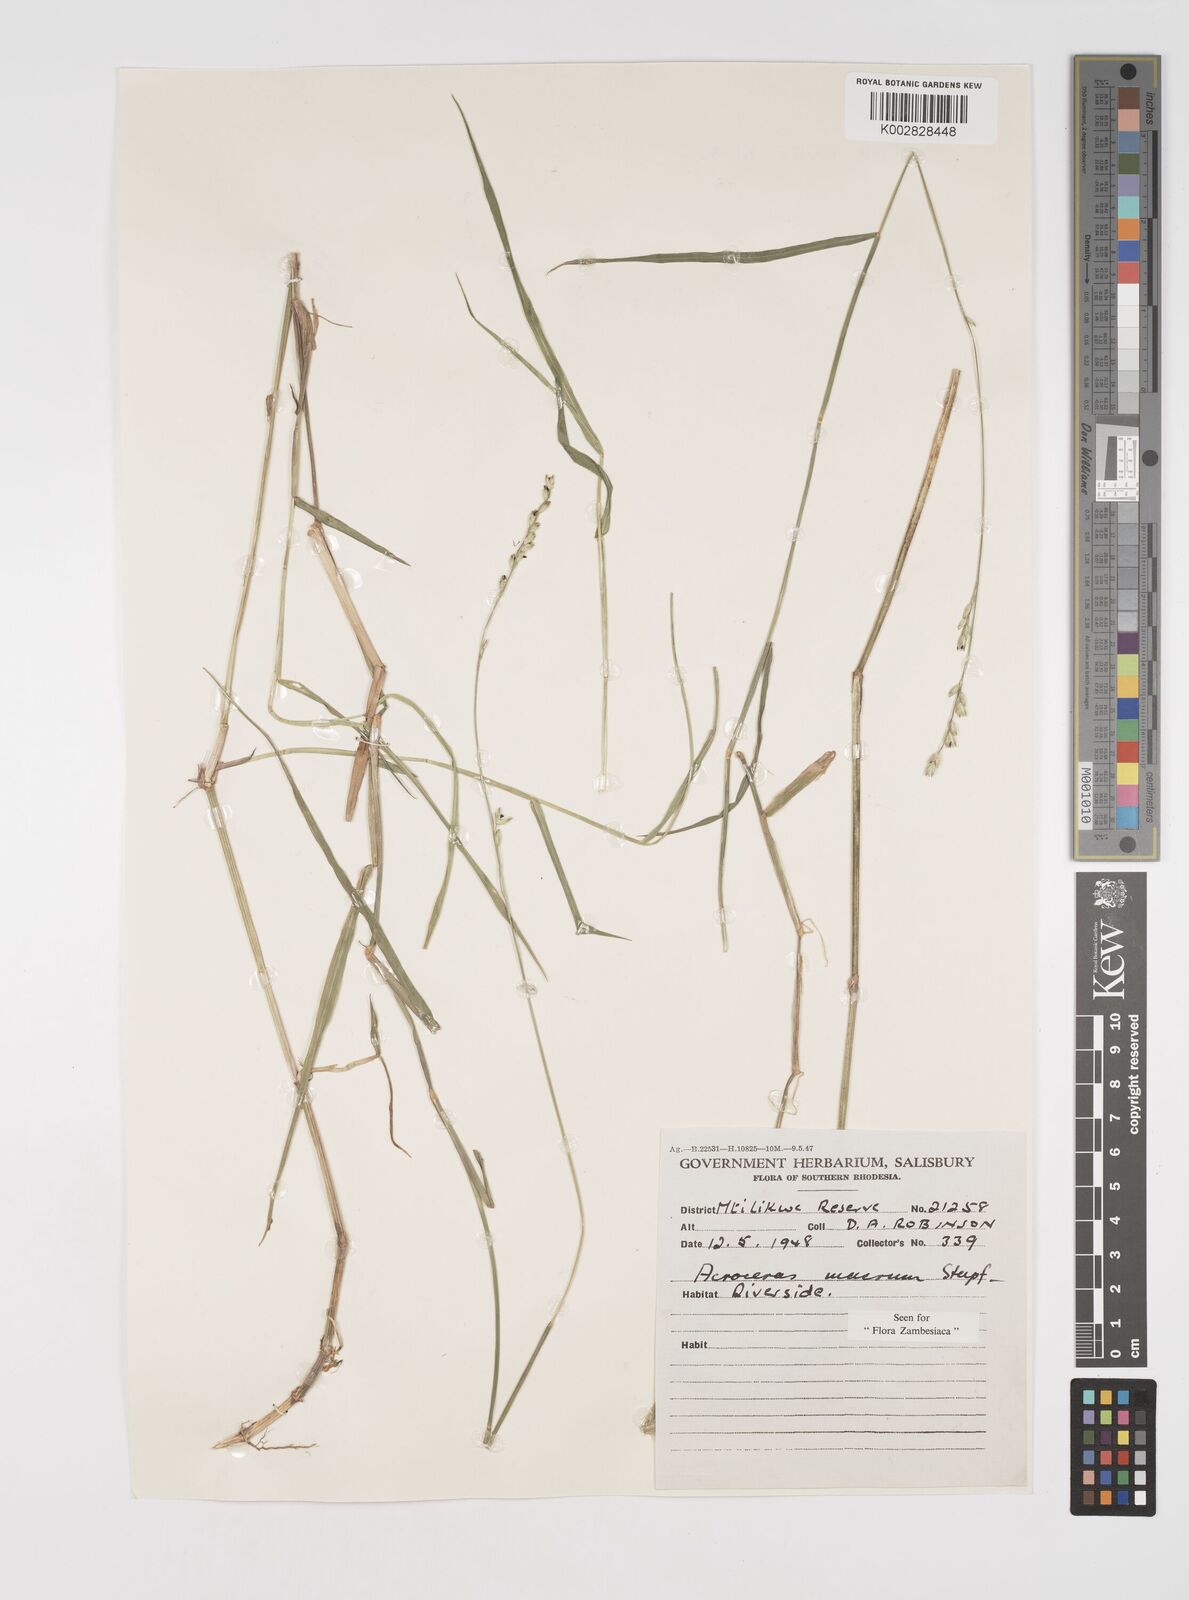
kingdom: Plantae
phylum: Tracheophyta
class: Liliopsida
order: Poales
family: Poaceae
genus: Acroceras
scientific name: Acroceras macrum
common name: Nyl grass
